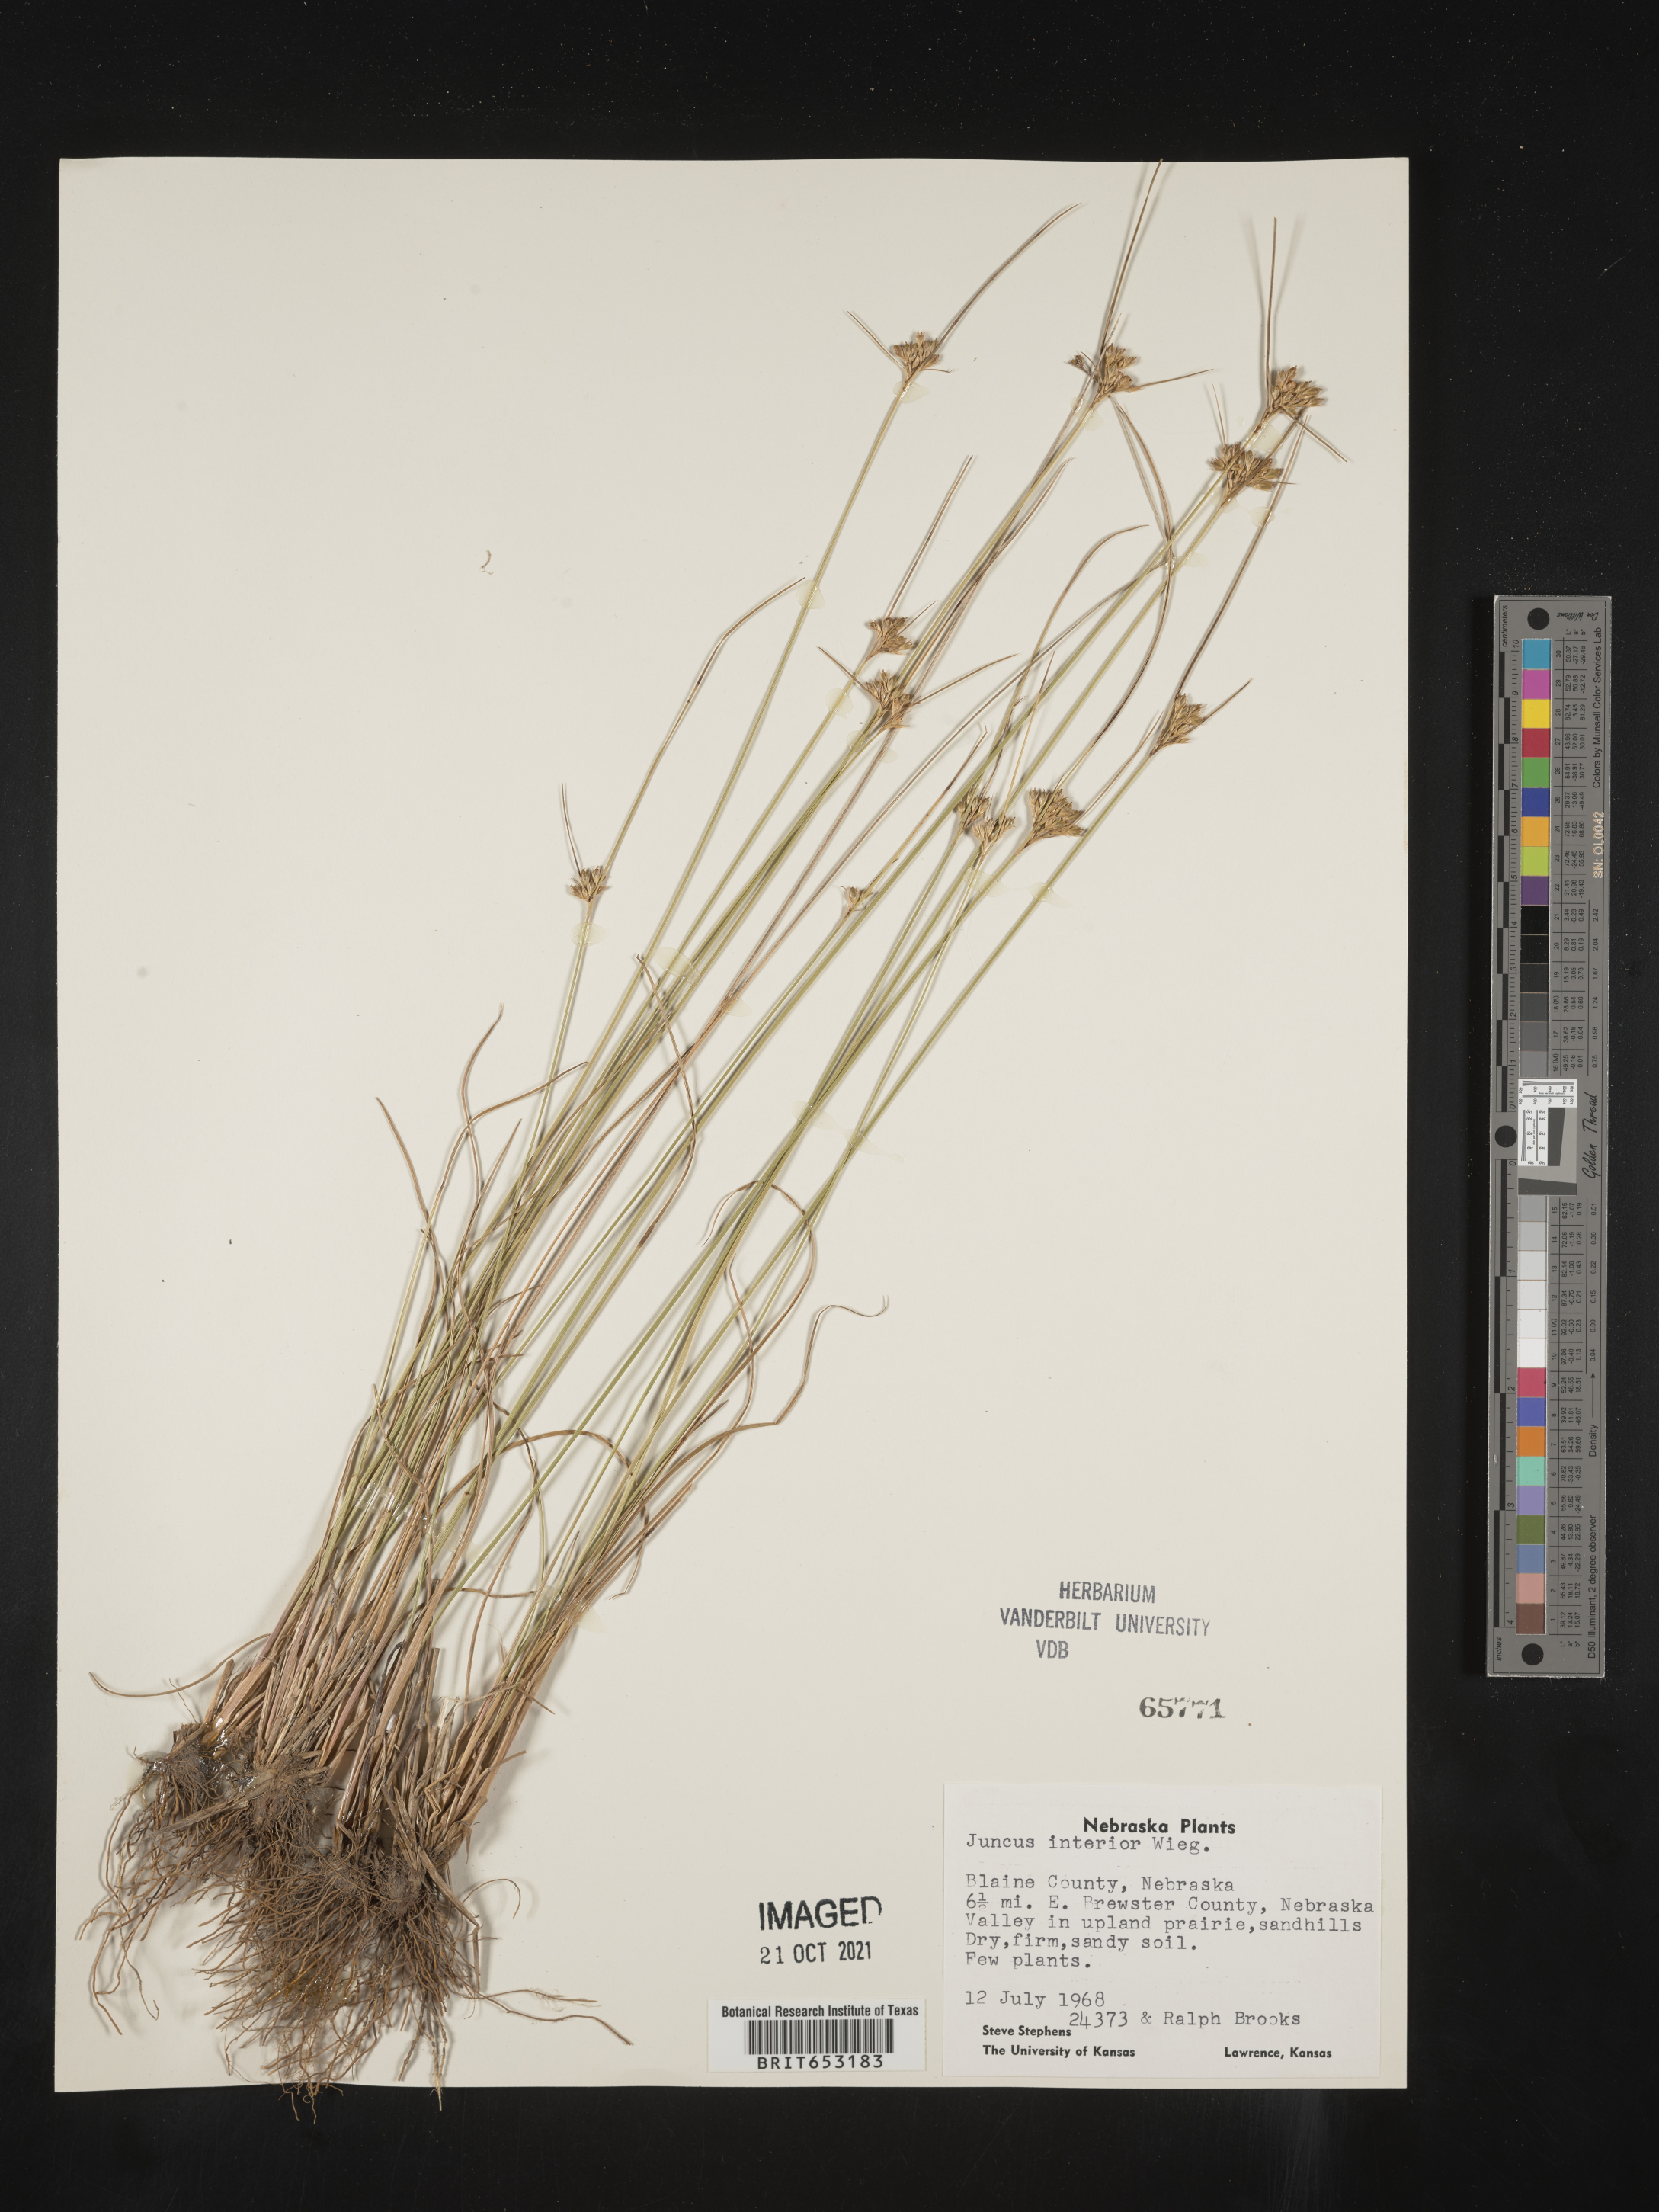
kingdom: Plantae
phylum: Tracheophyta
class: Liliopsida
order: Poales
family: Juncaceae
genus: Juncus
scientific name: Juncus interior
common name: Interior rush
